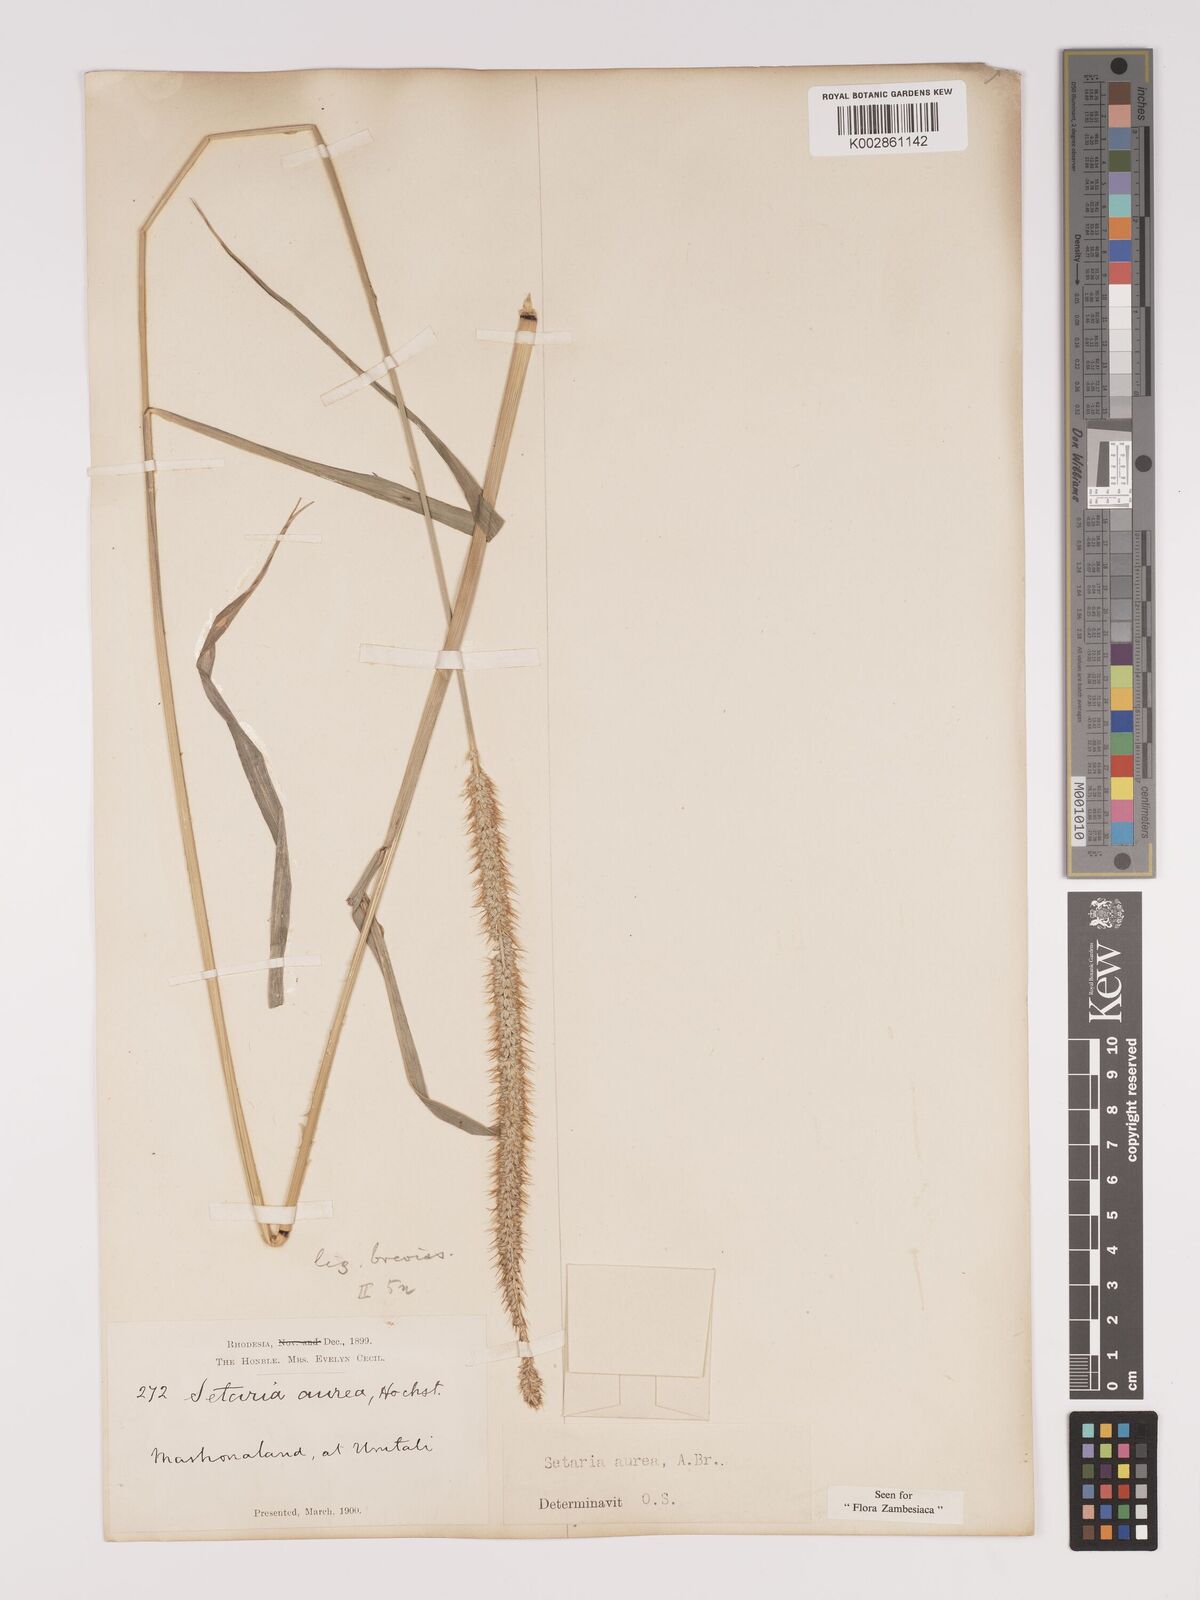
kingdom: Plantae
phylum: Tracheophyta
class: Liliopsida
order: Poales
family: Poaceae
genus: Setaria
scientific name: Setaria sphacelata
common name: African bristlegrass
